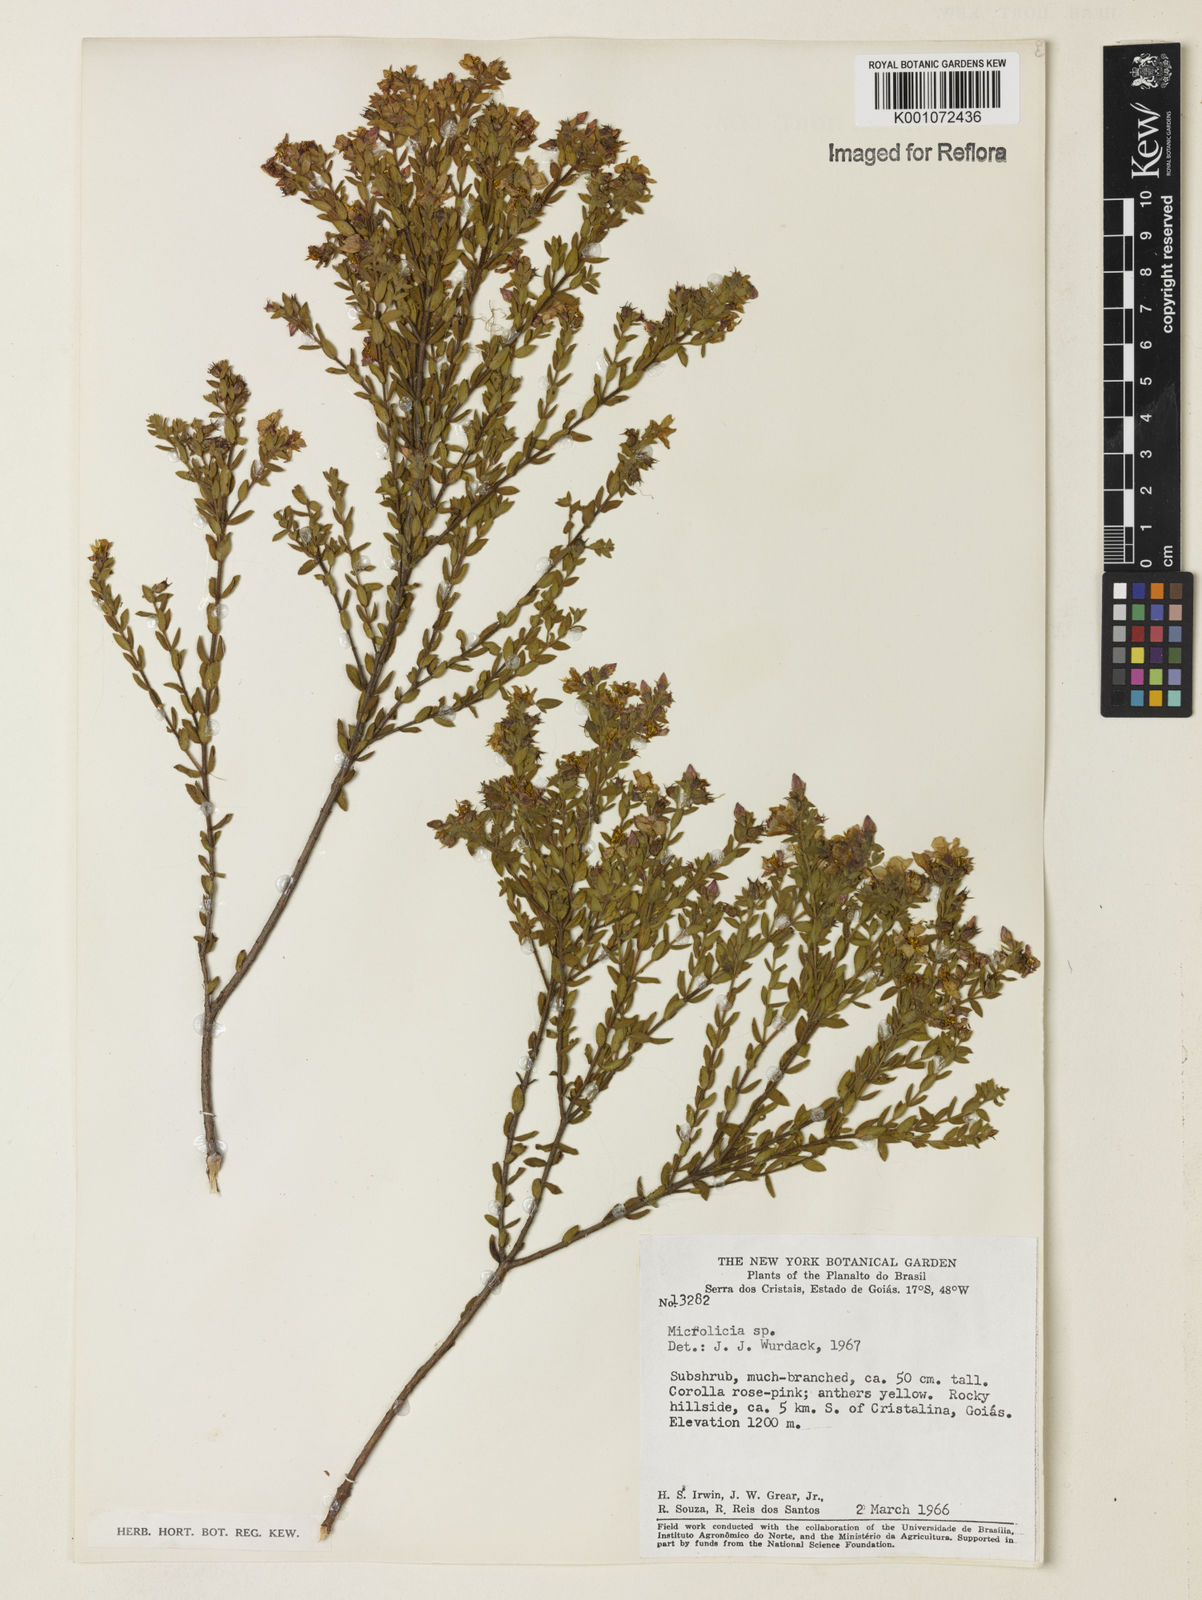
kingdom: Plantae
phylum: Tracheophyta
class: Magnoliopsida
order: Myrtales
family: Melastomataceae
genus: Microlicia
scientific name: Microlicia
